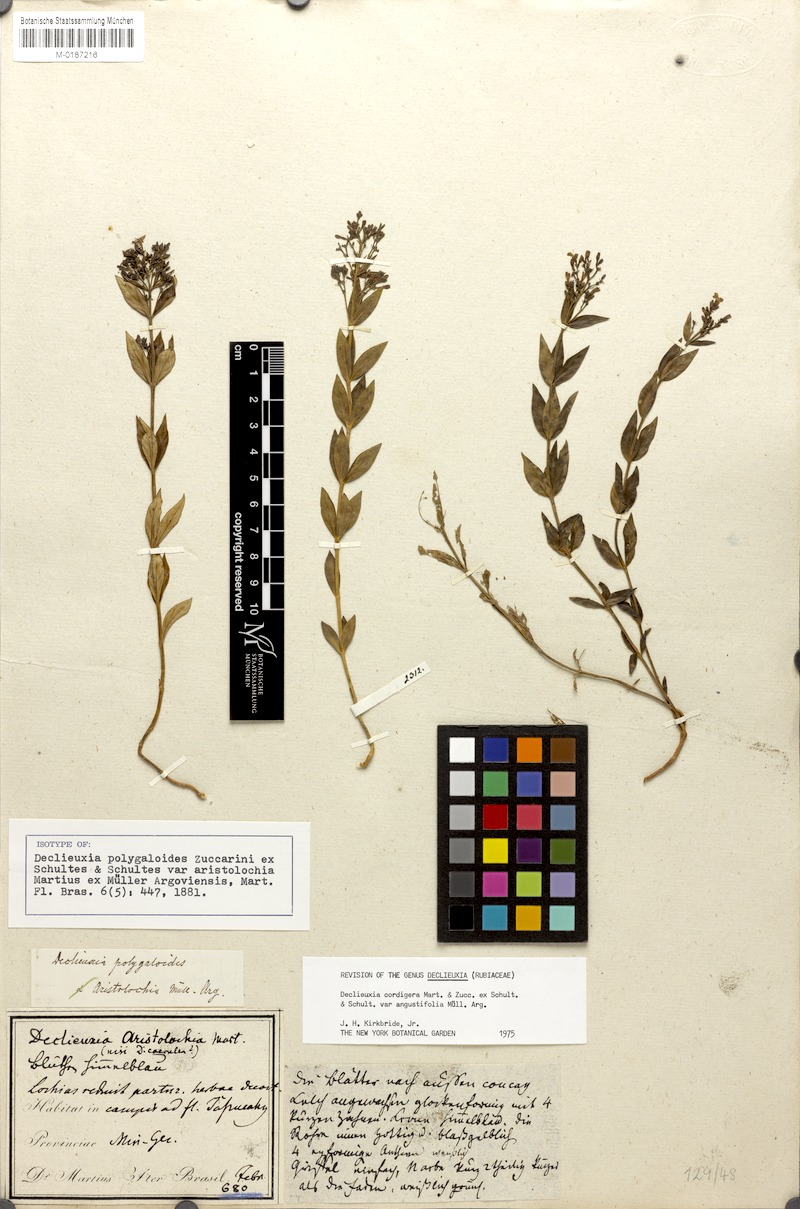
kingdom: Plantae
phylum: Tracheophyta
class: Magnoliopsida
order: Gentianales
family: Rubiaceae
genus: Declieuxia
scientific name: Declieuxia cordigera
